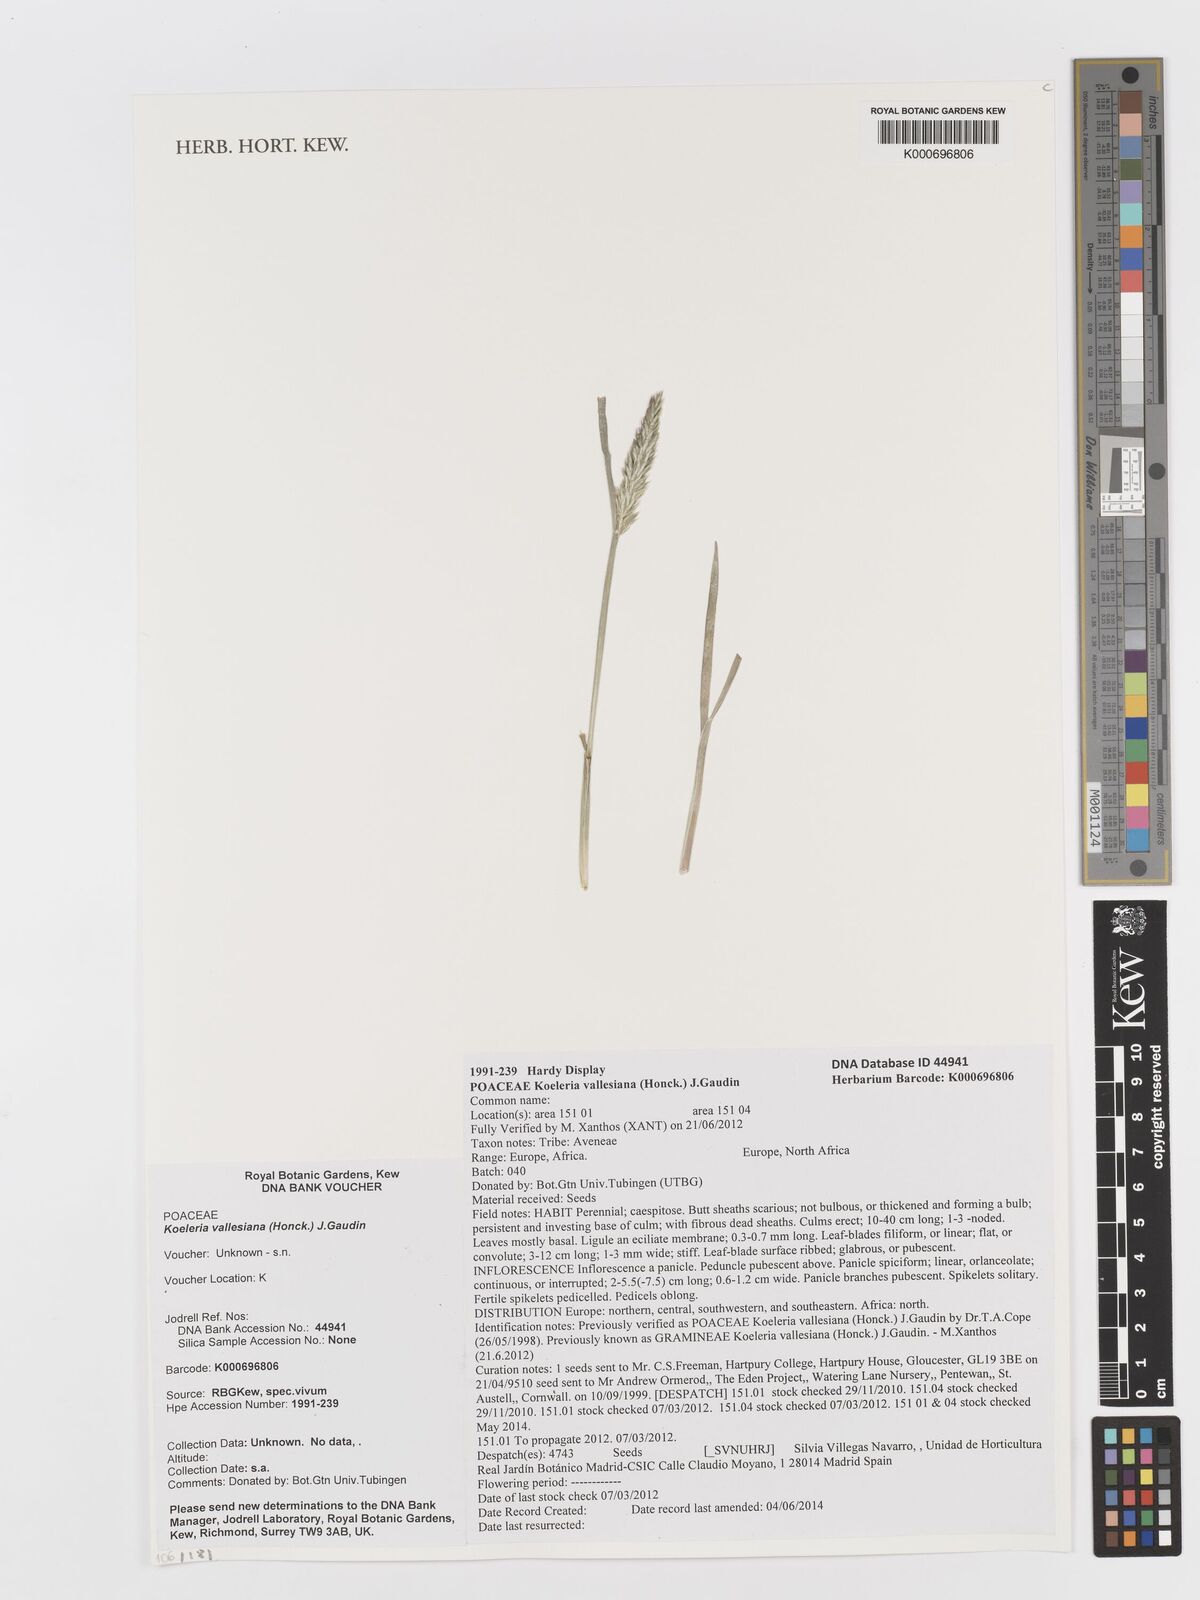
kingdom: Plantae
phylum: Tracheophyta
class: Liliopsida
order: Poales
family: Poaceae
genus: Koeleria
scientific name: Koeleria vallesiana
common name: Somerset hair-grass
